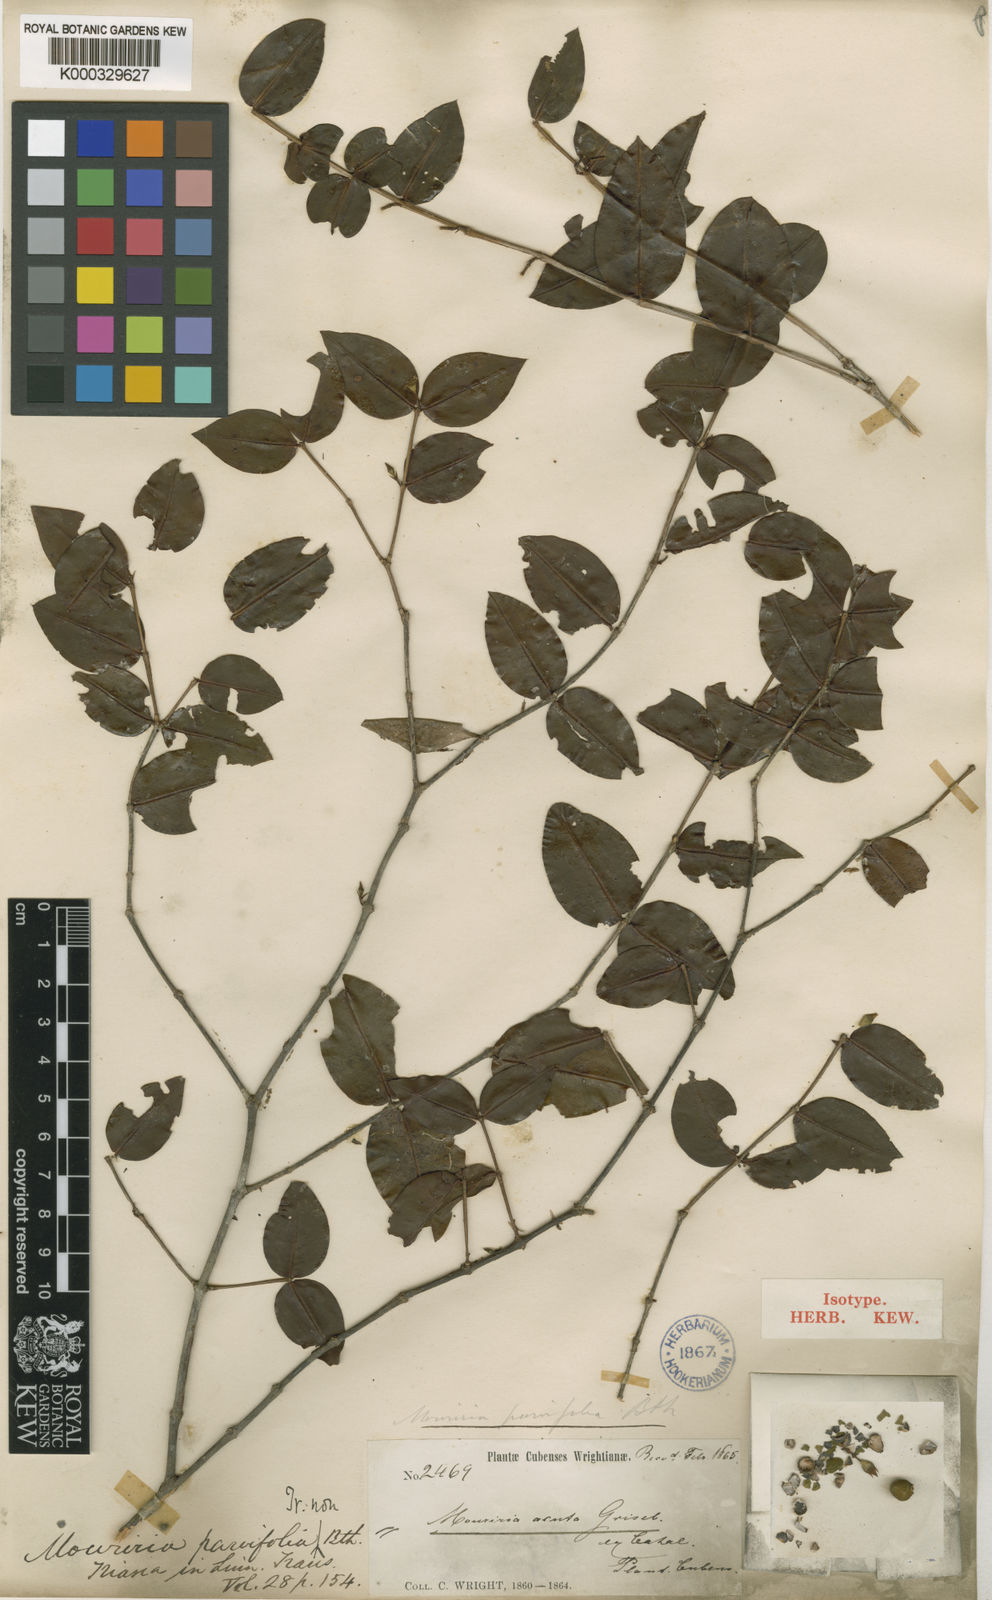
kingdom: Plantae
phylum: Tracheophyta
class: Magnoliopsida
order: Myrtales
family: Melastomataceae
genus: Mouriri
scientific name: Mouriri myrtilloides
